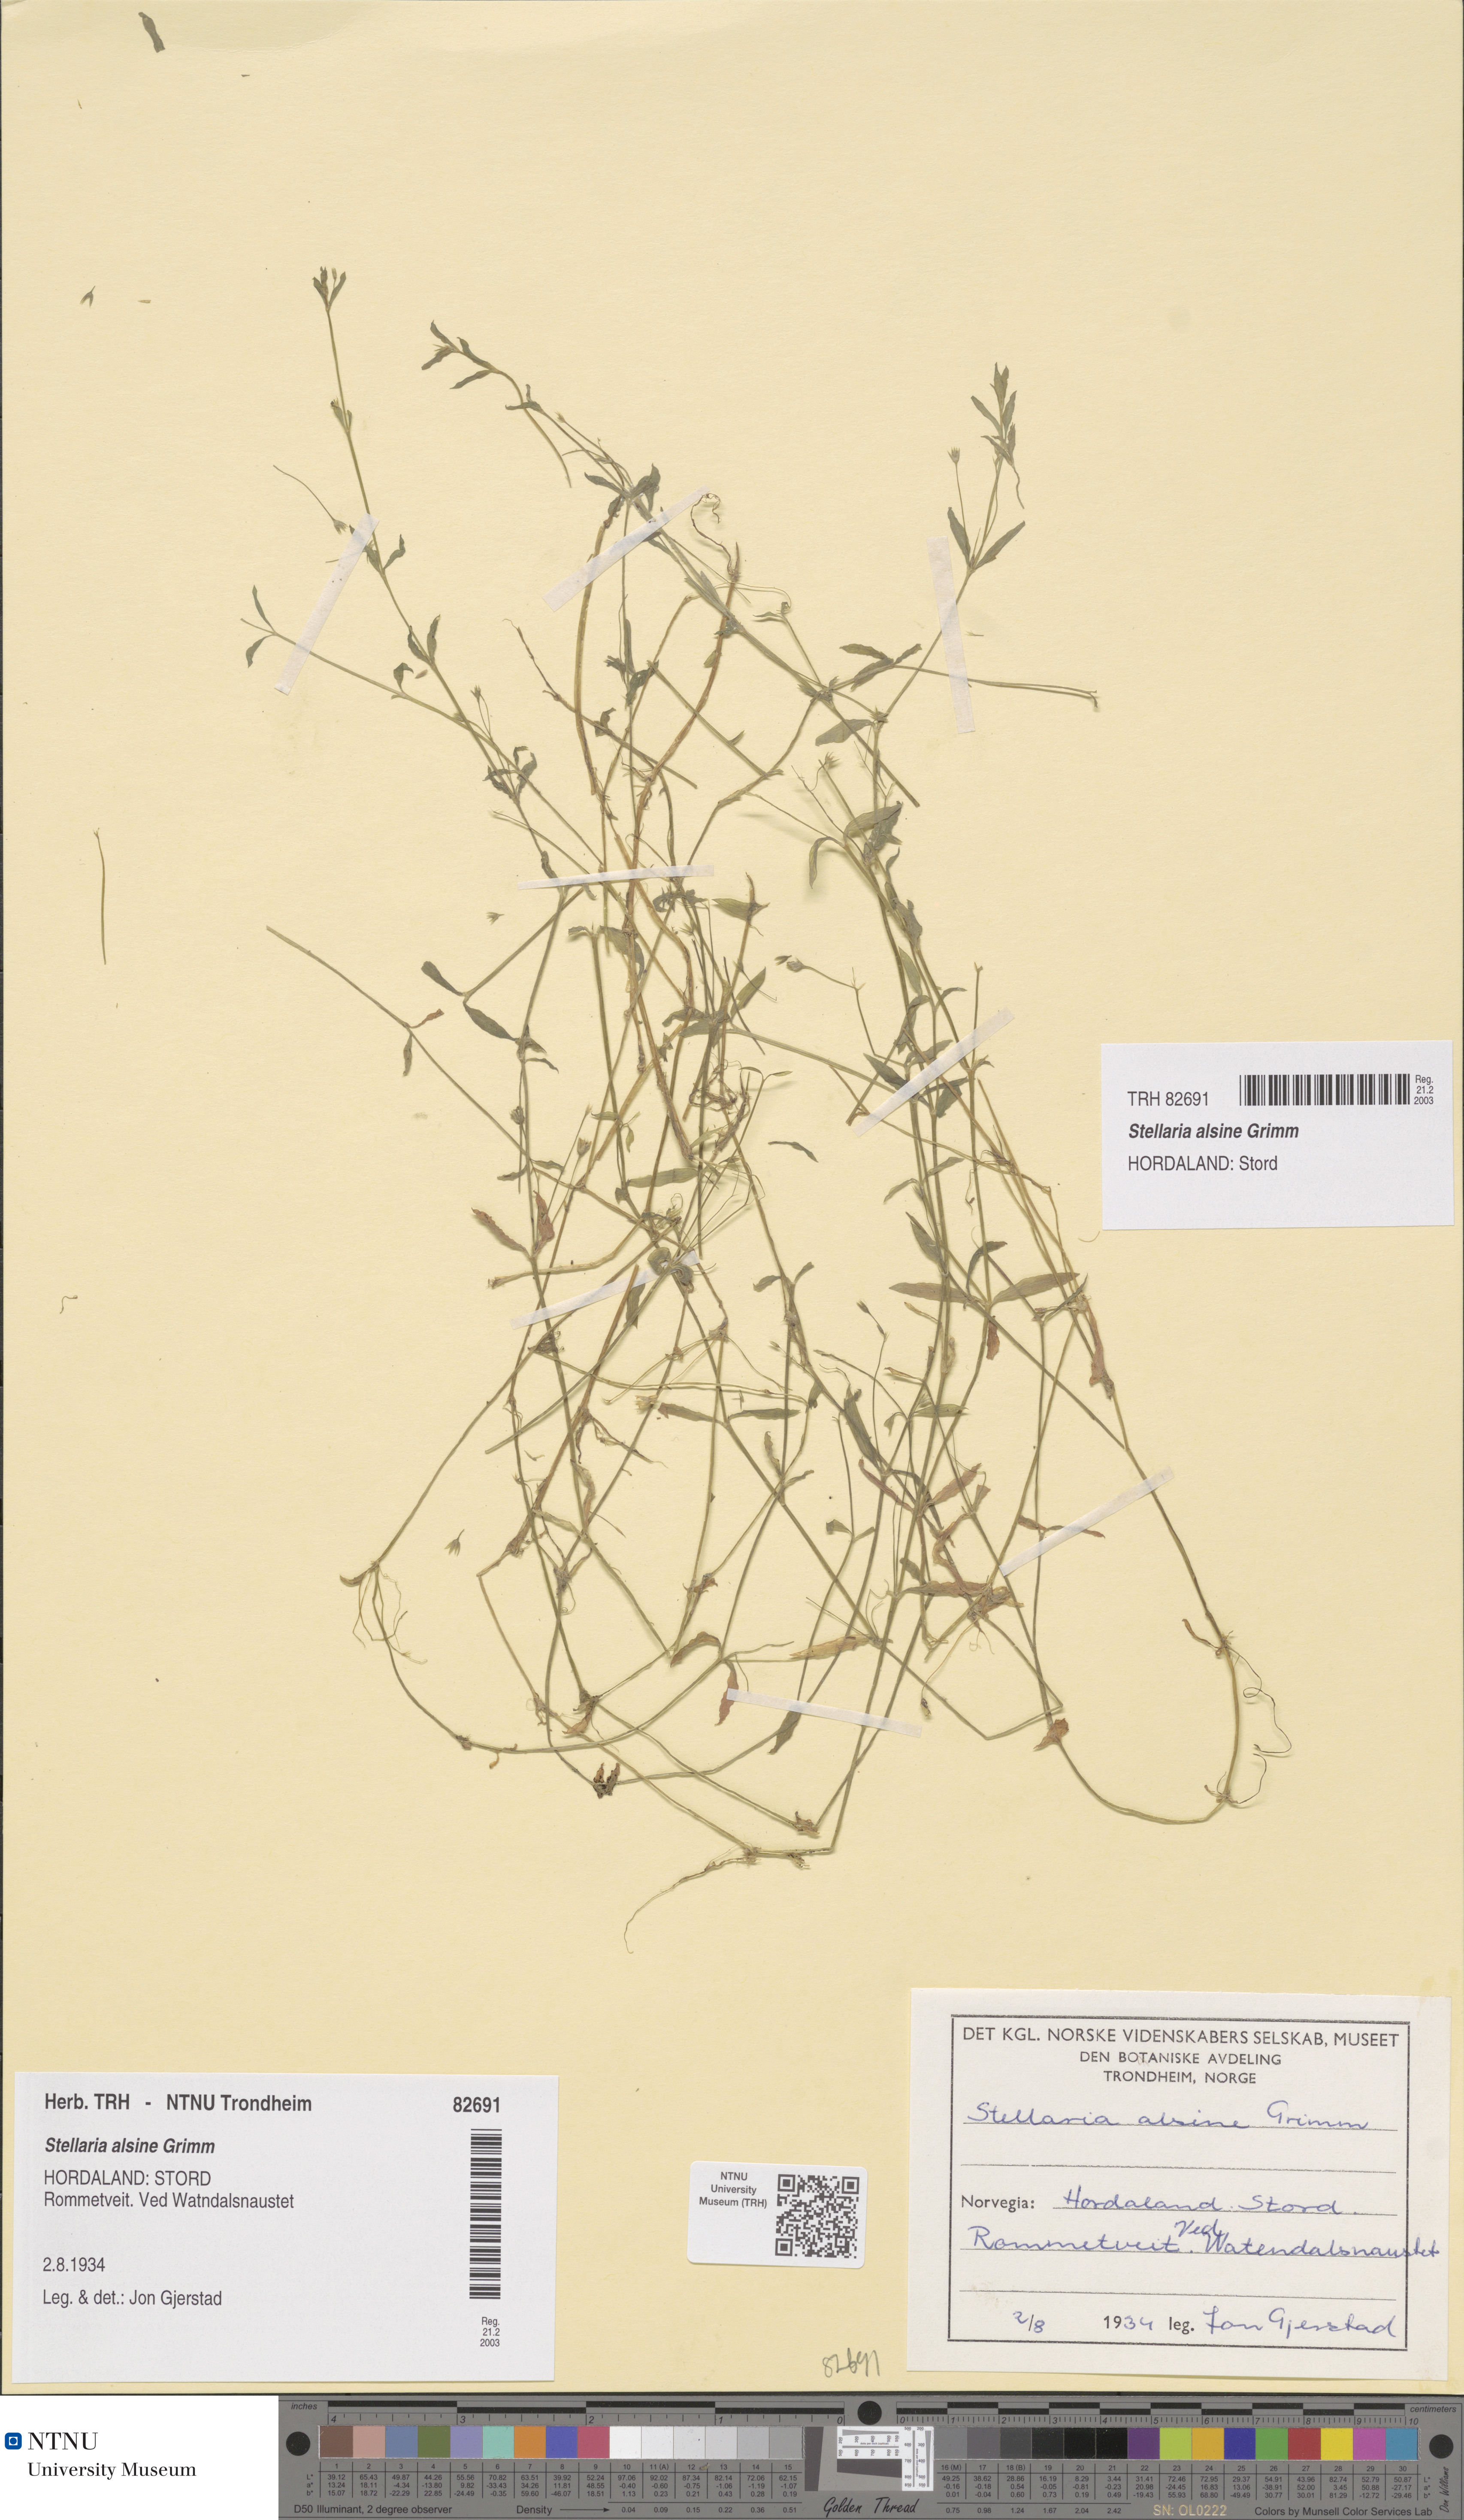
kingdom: Plantae
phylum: Tracheophyta
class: Magnoliopsida
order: Caryophyllales
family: Caryophyllaceae
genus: Stellaria
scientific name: Stellaria alsine
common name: Bog stitchwort
